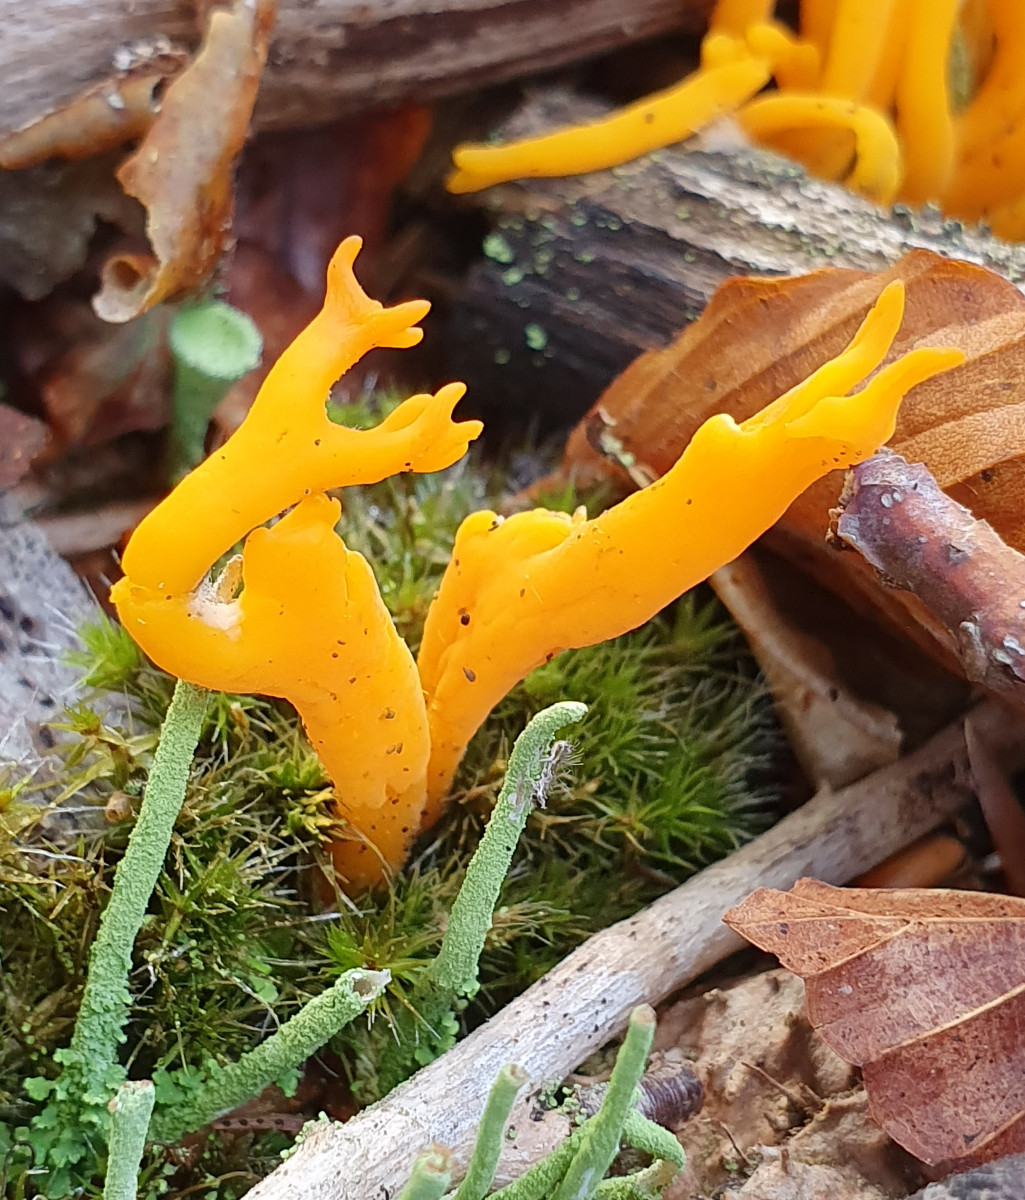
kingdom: Fungi
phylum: Basidiomycota
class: Dacrymycetes
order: Dacrymycetales
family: Dacrymycetaceae
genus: Calocera
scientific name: Calocera viscosa
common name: almindelig guldgaffel
